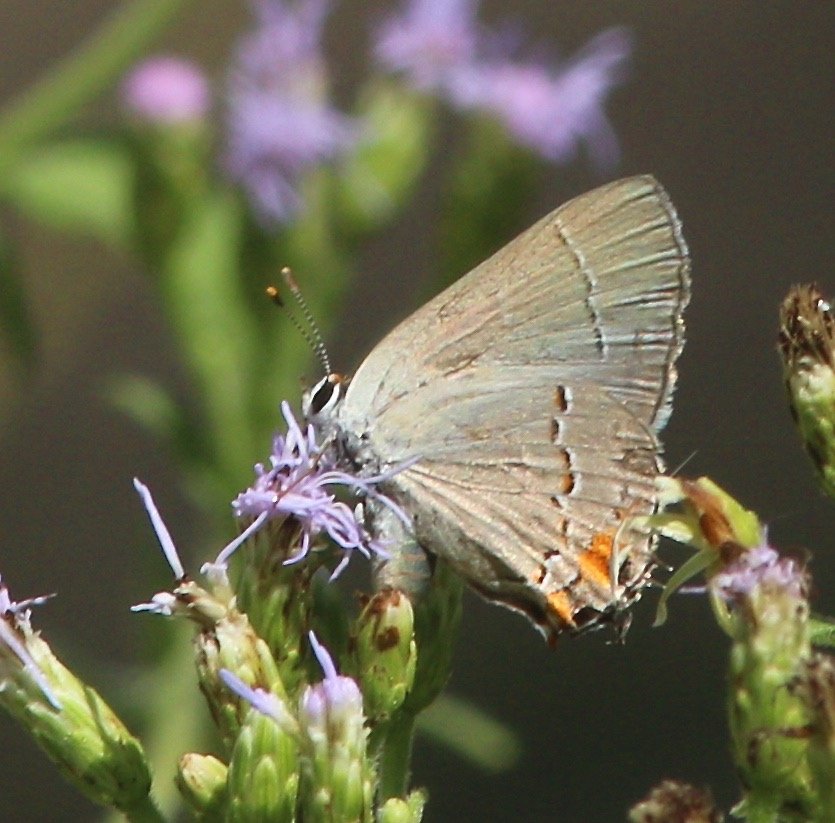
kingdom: Animalia
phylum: Arthropoda
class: Insecta
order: Lepidoptera
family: Lycaenidae
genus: Strymon
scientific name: Strymon melinus
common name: Gray Hairstreak
